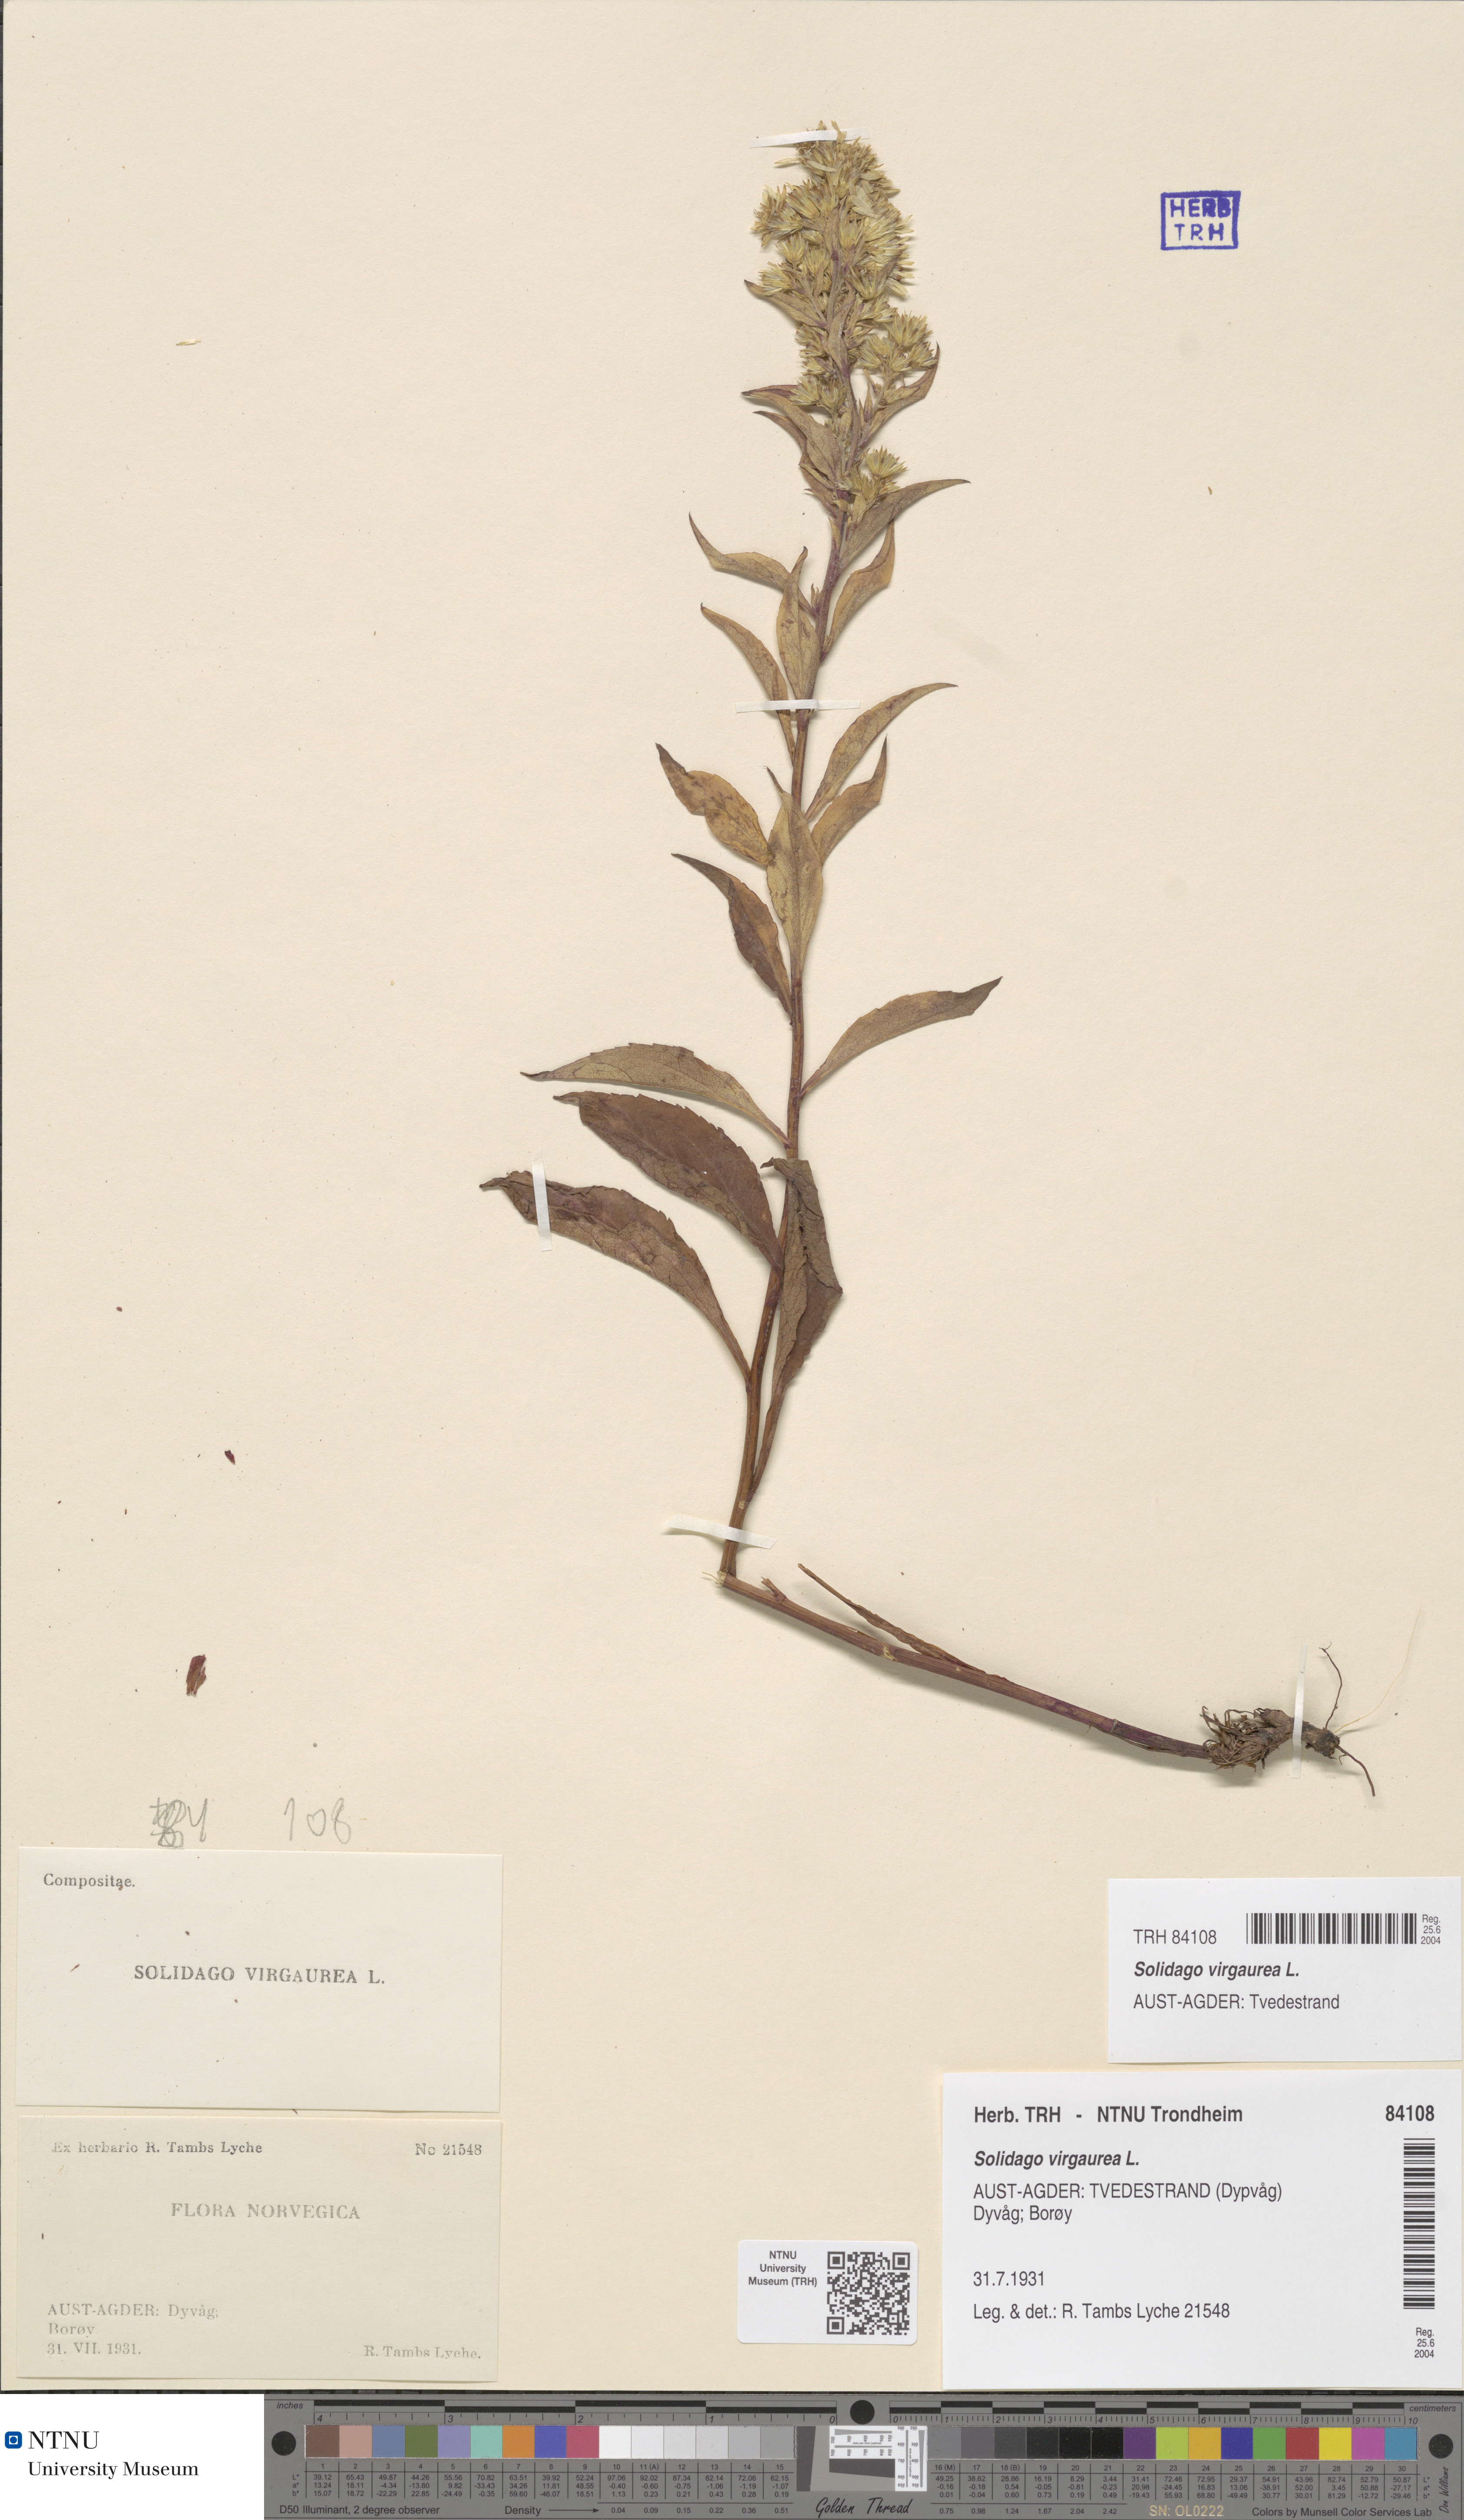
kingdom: Plantae
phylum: Tracheophyta
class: Magnoliopsida
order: Asterales
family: Asteraceae
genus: Solidago
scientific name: Solidago virgaurea
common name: Goldenrod
